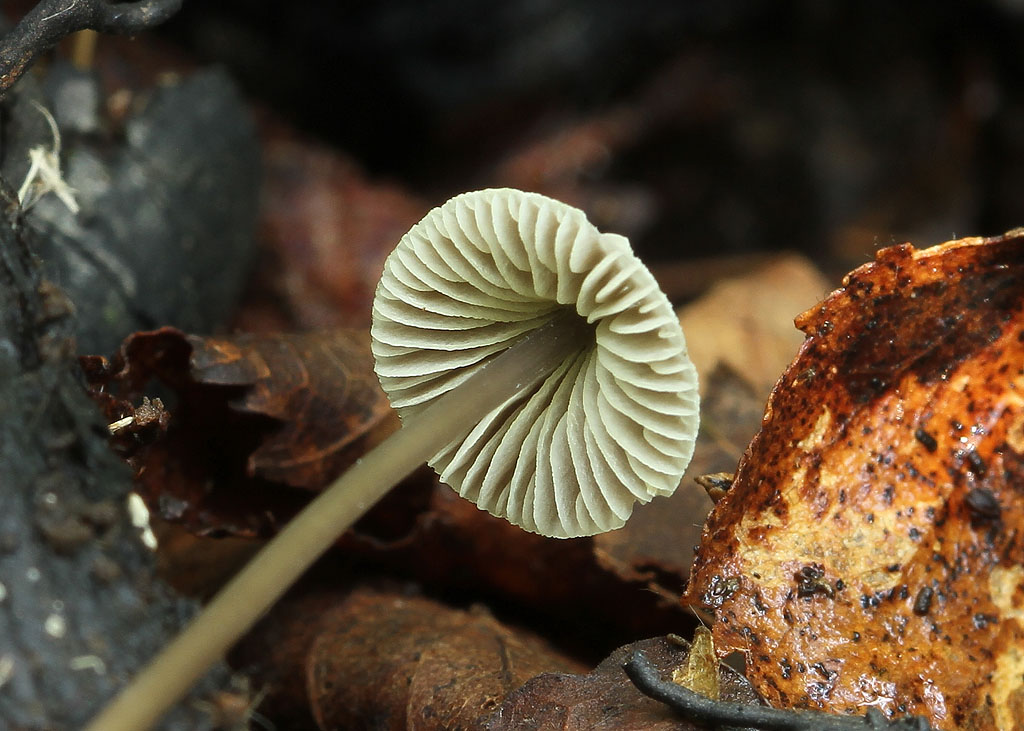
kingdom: Fungi
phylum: Basidiomycota
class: Agaricomycetes
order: Agaricales
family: Mycenaceae
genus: Mycena
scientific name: Mycena flavescens
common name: grågul huesvamp
